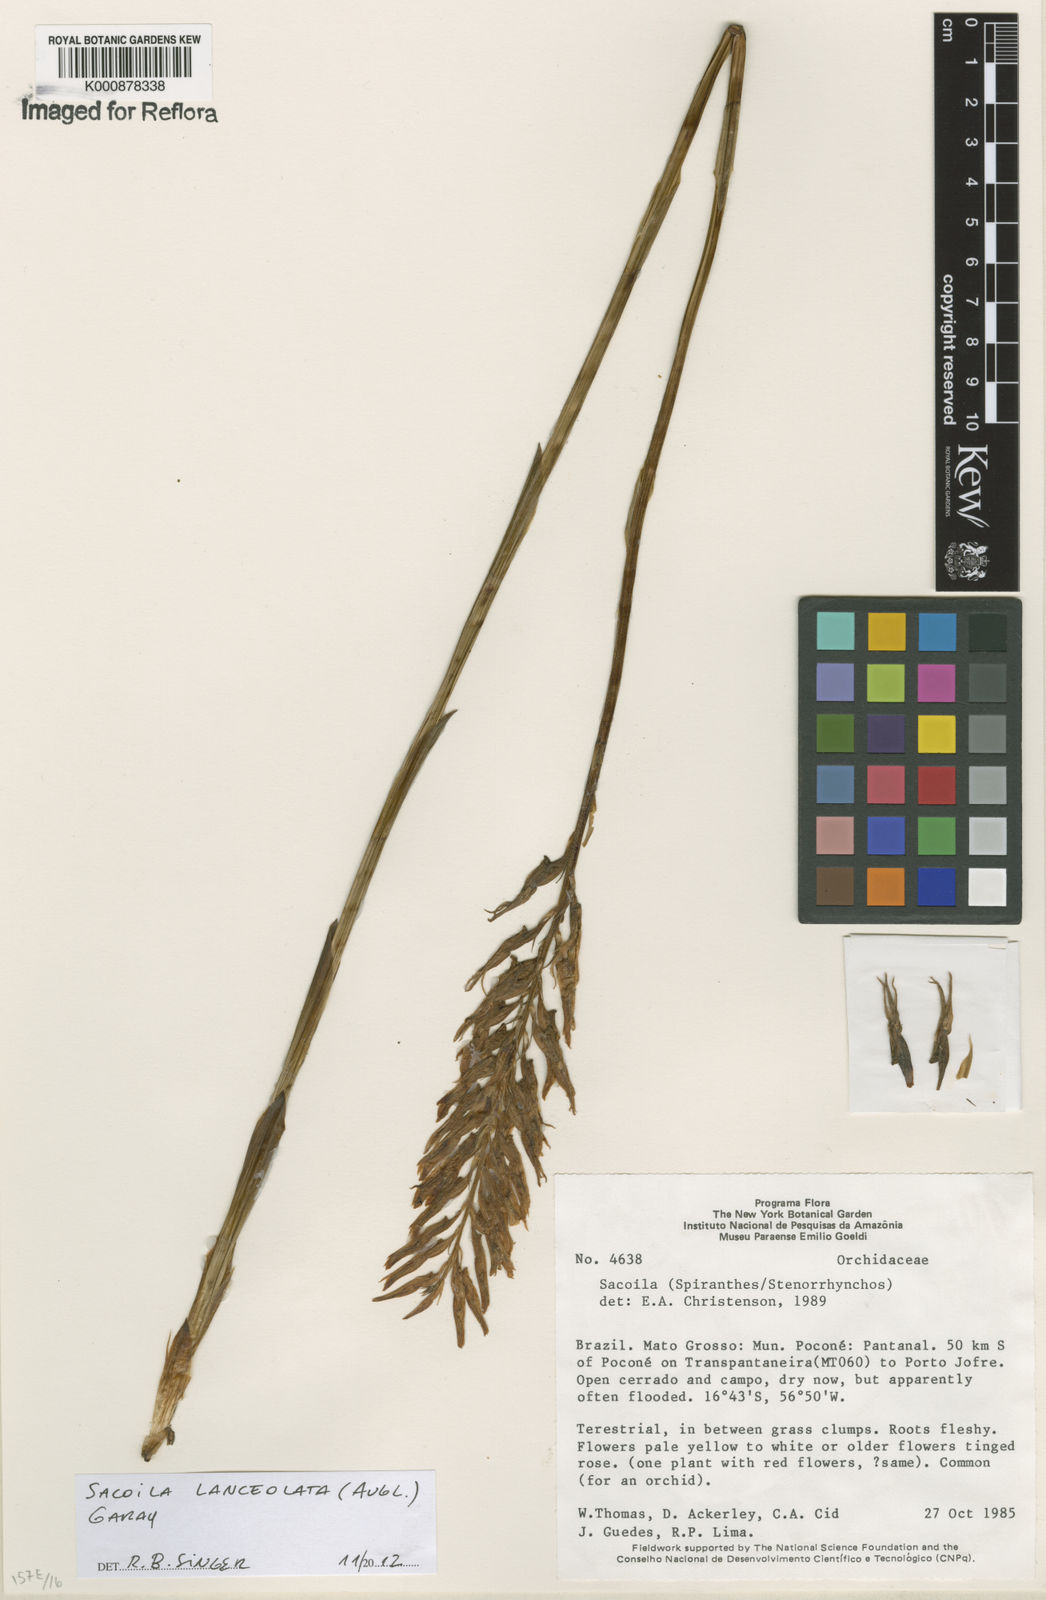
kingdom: Plantae
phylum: Tracheophyta
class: Liliopsida
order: Asparagales
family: Orchidaceae
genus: Sacoila
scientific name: Sacoila lanceolata
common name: Leafless beaked ladiestresses
